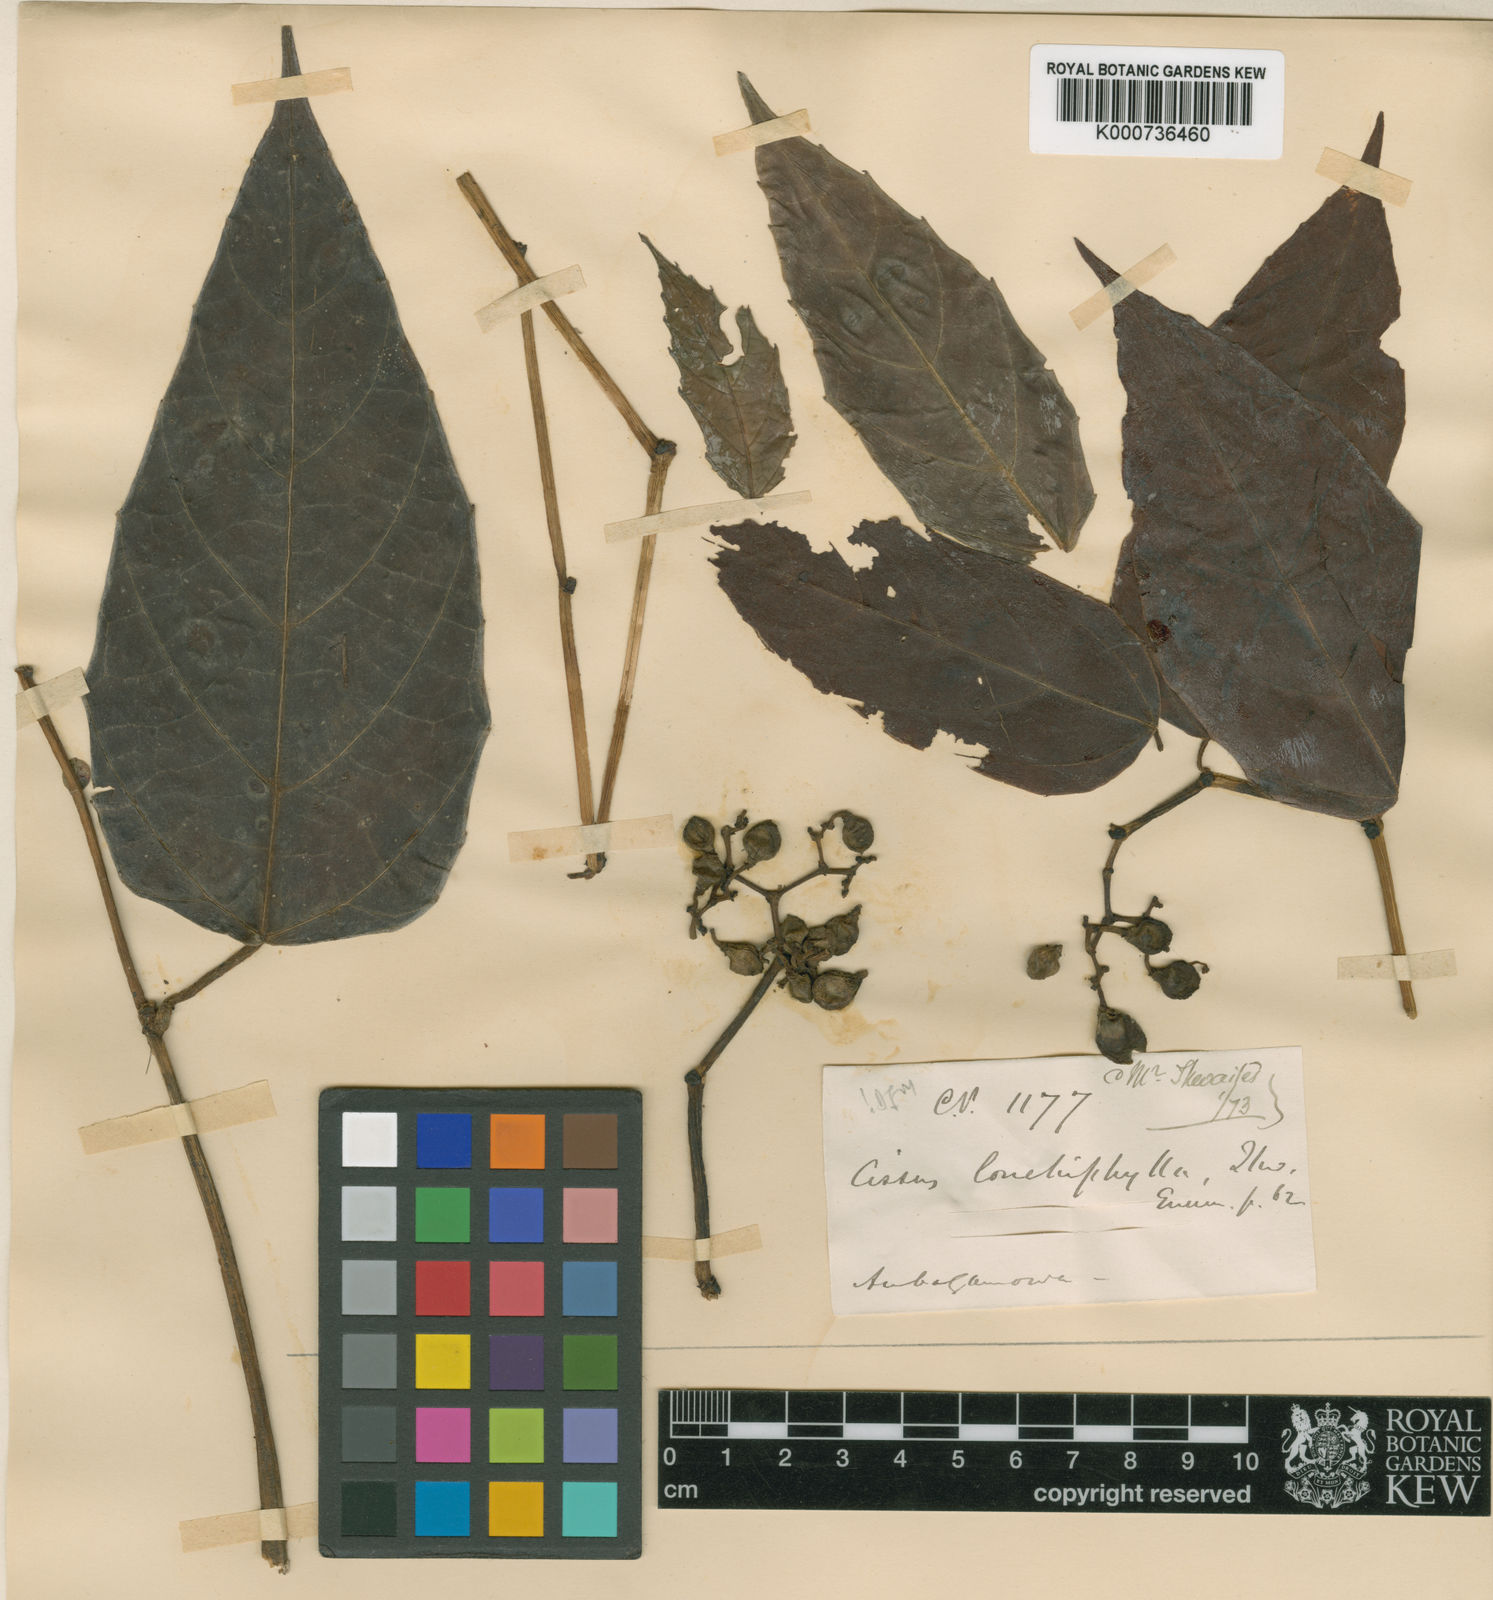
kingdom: Plantae
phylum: Tracheophyta
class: Magnoliopsida
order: Vitales
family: Vitaceae
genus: Cissus
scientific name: Cissus lonchiphylla
